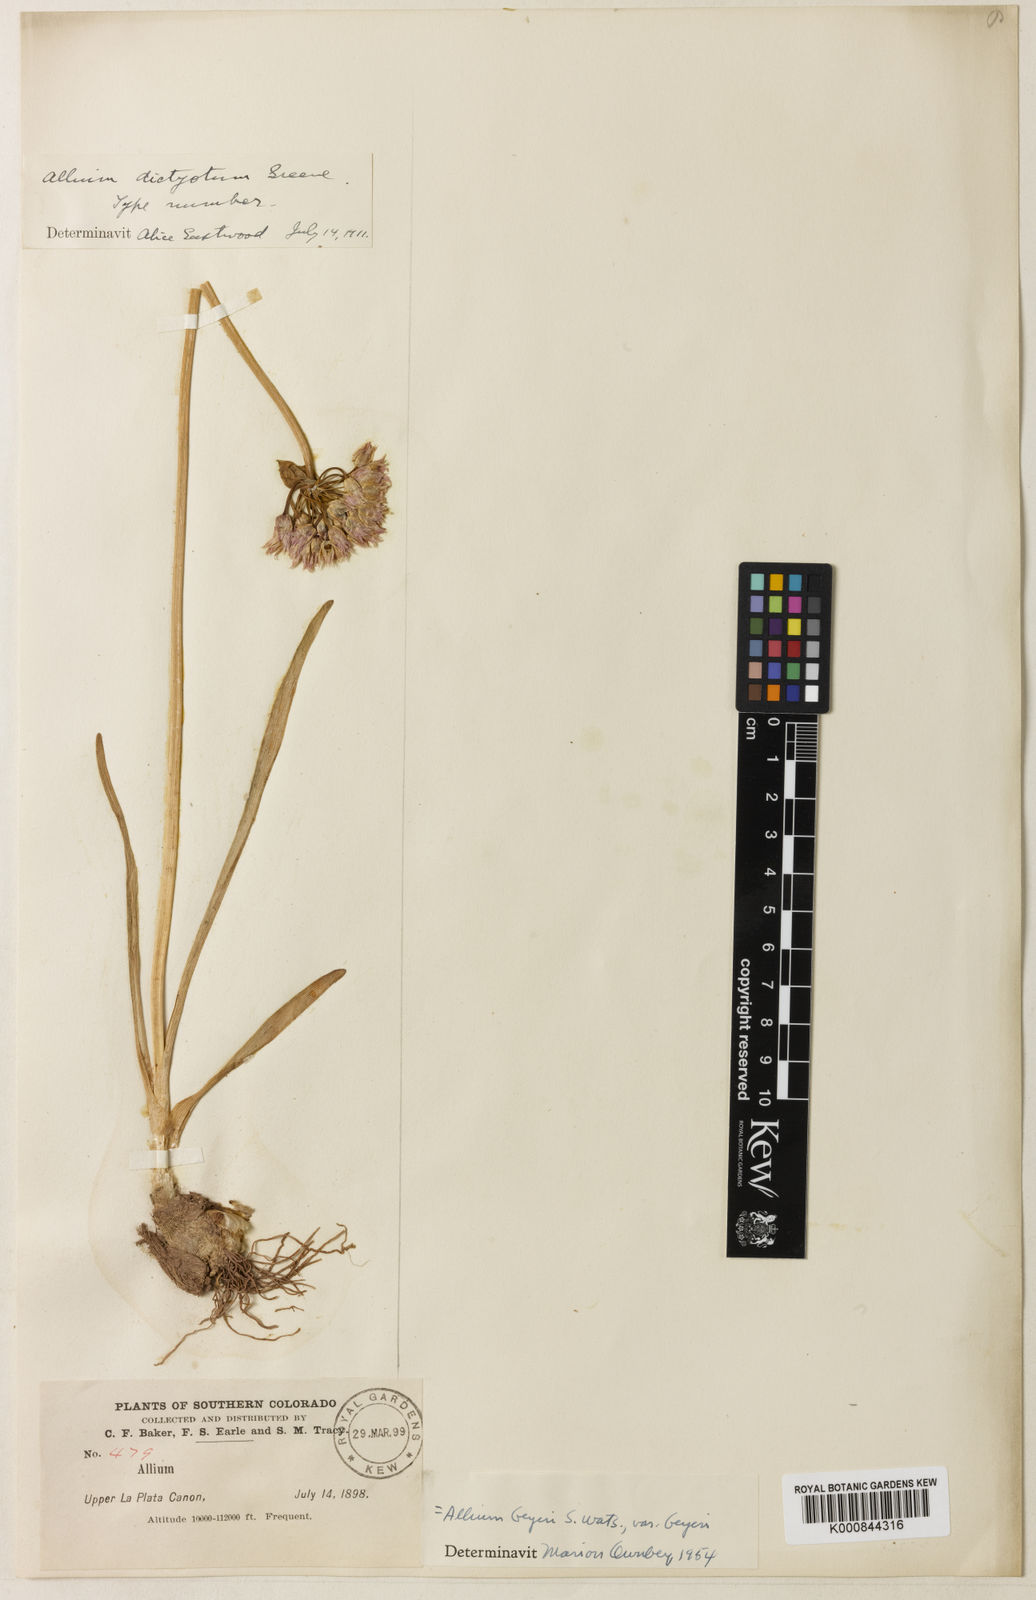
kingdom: Plantae
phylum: Tracheophyta
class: Liliopsida
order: Asparagales
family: Amaryllidaceae
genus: Allium
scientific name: Allium geyeri
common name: Geyer's onion
